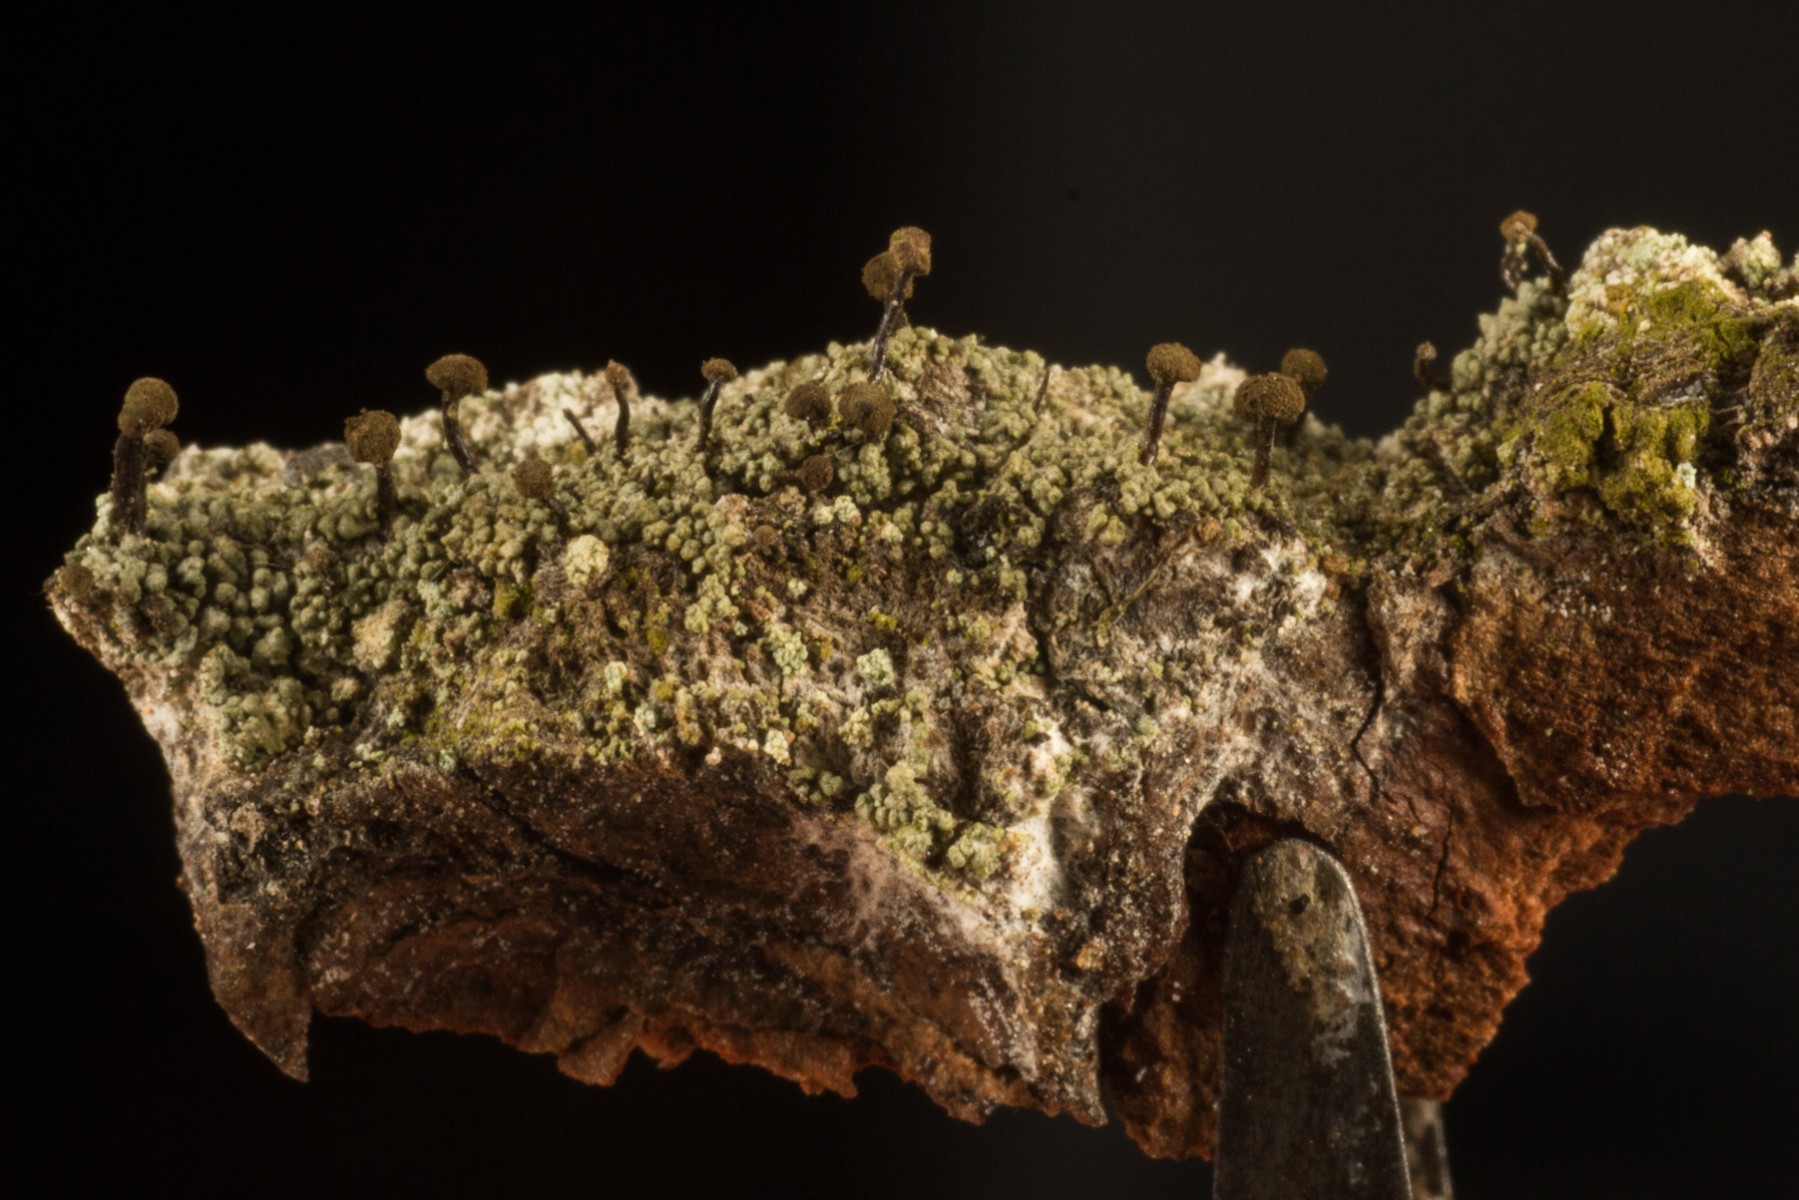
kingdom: Fungi
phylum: Ascomycota
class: Coniocybomycetes
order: Coniocybales
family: Coniocybaceae
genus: Chaenotheca
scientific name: Chaenotheca trichialis
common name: grå knappenålslav
